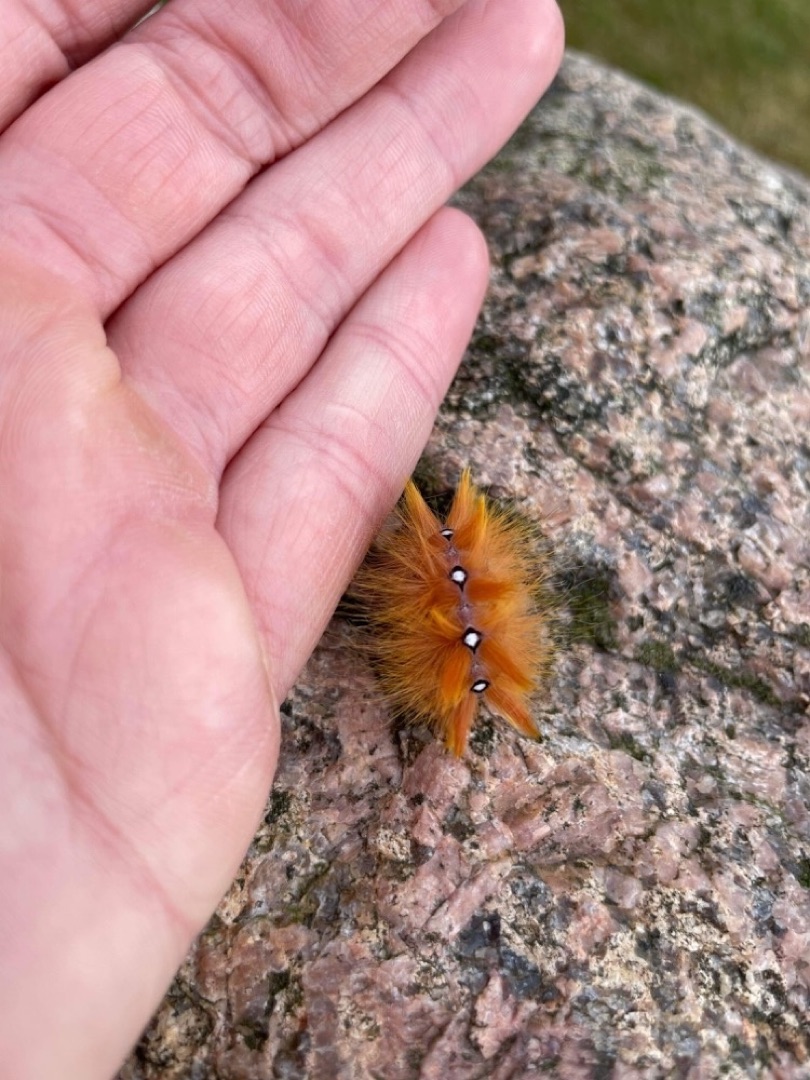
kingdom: Animalia
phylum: Arthropoda
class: Insecta
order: Lepidoptera
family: Noctuidae
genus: Acronicta
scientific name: Acronicta aceris
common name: Ahornugle
